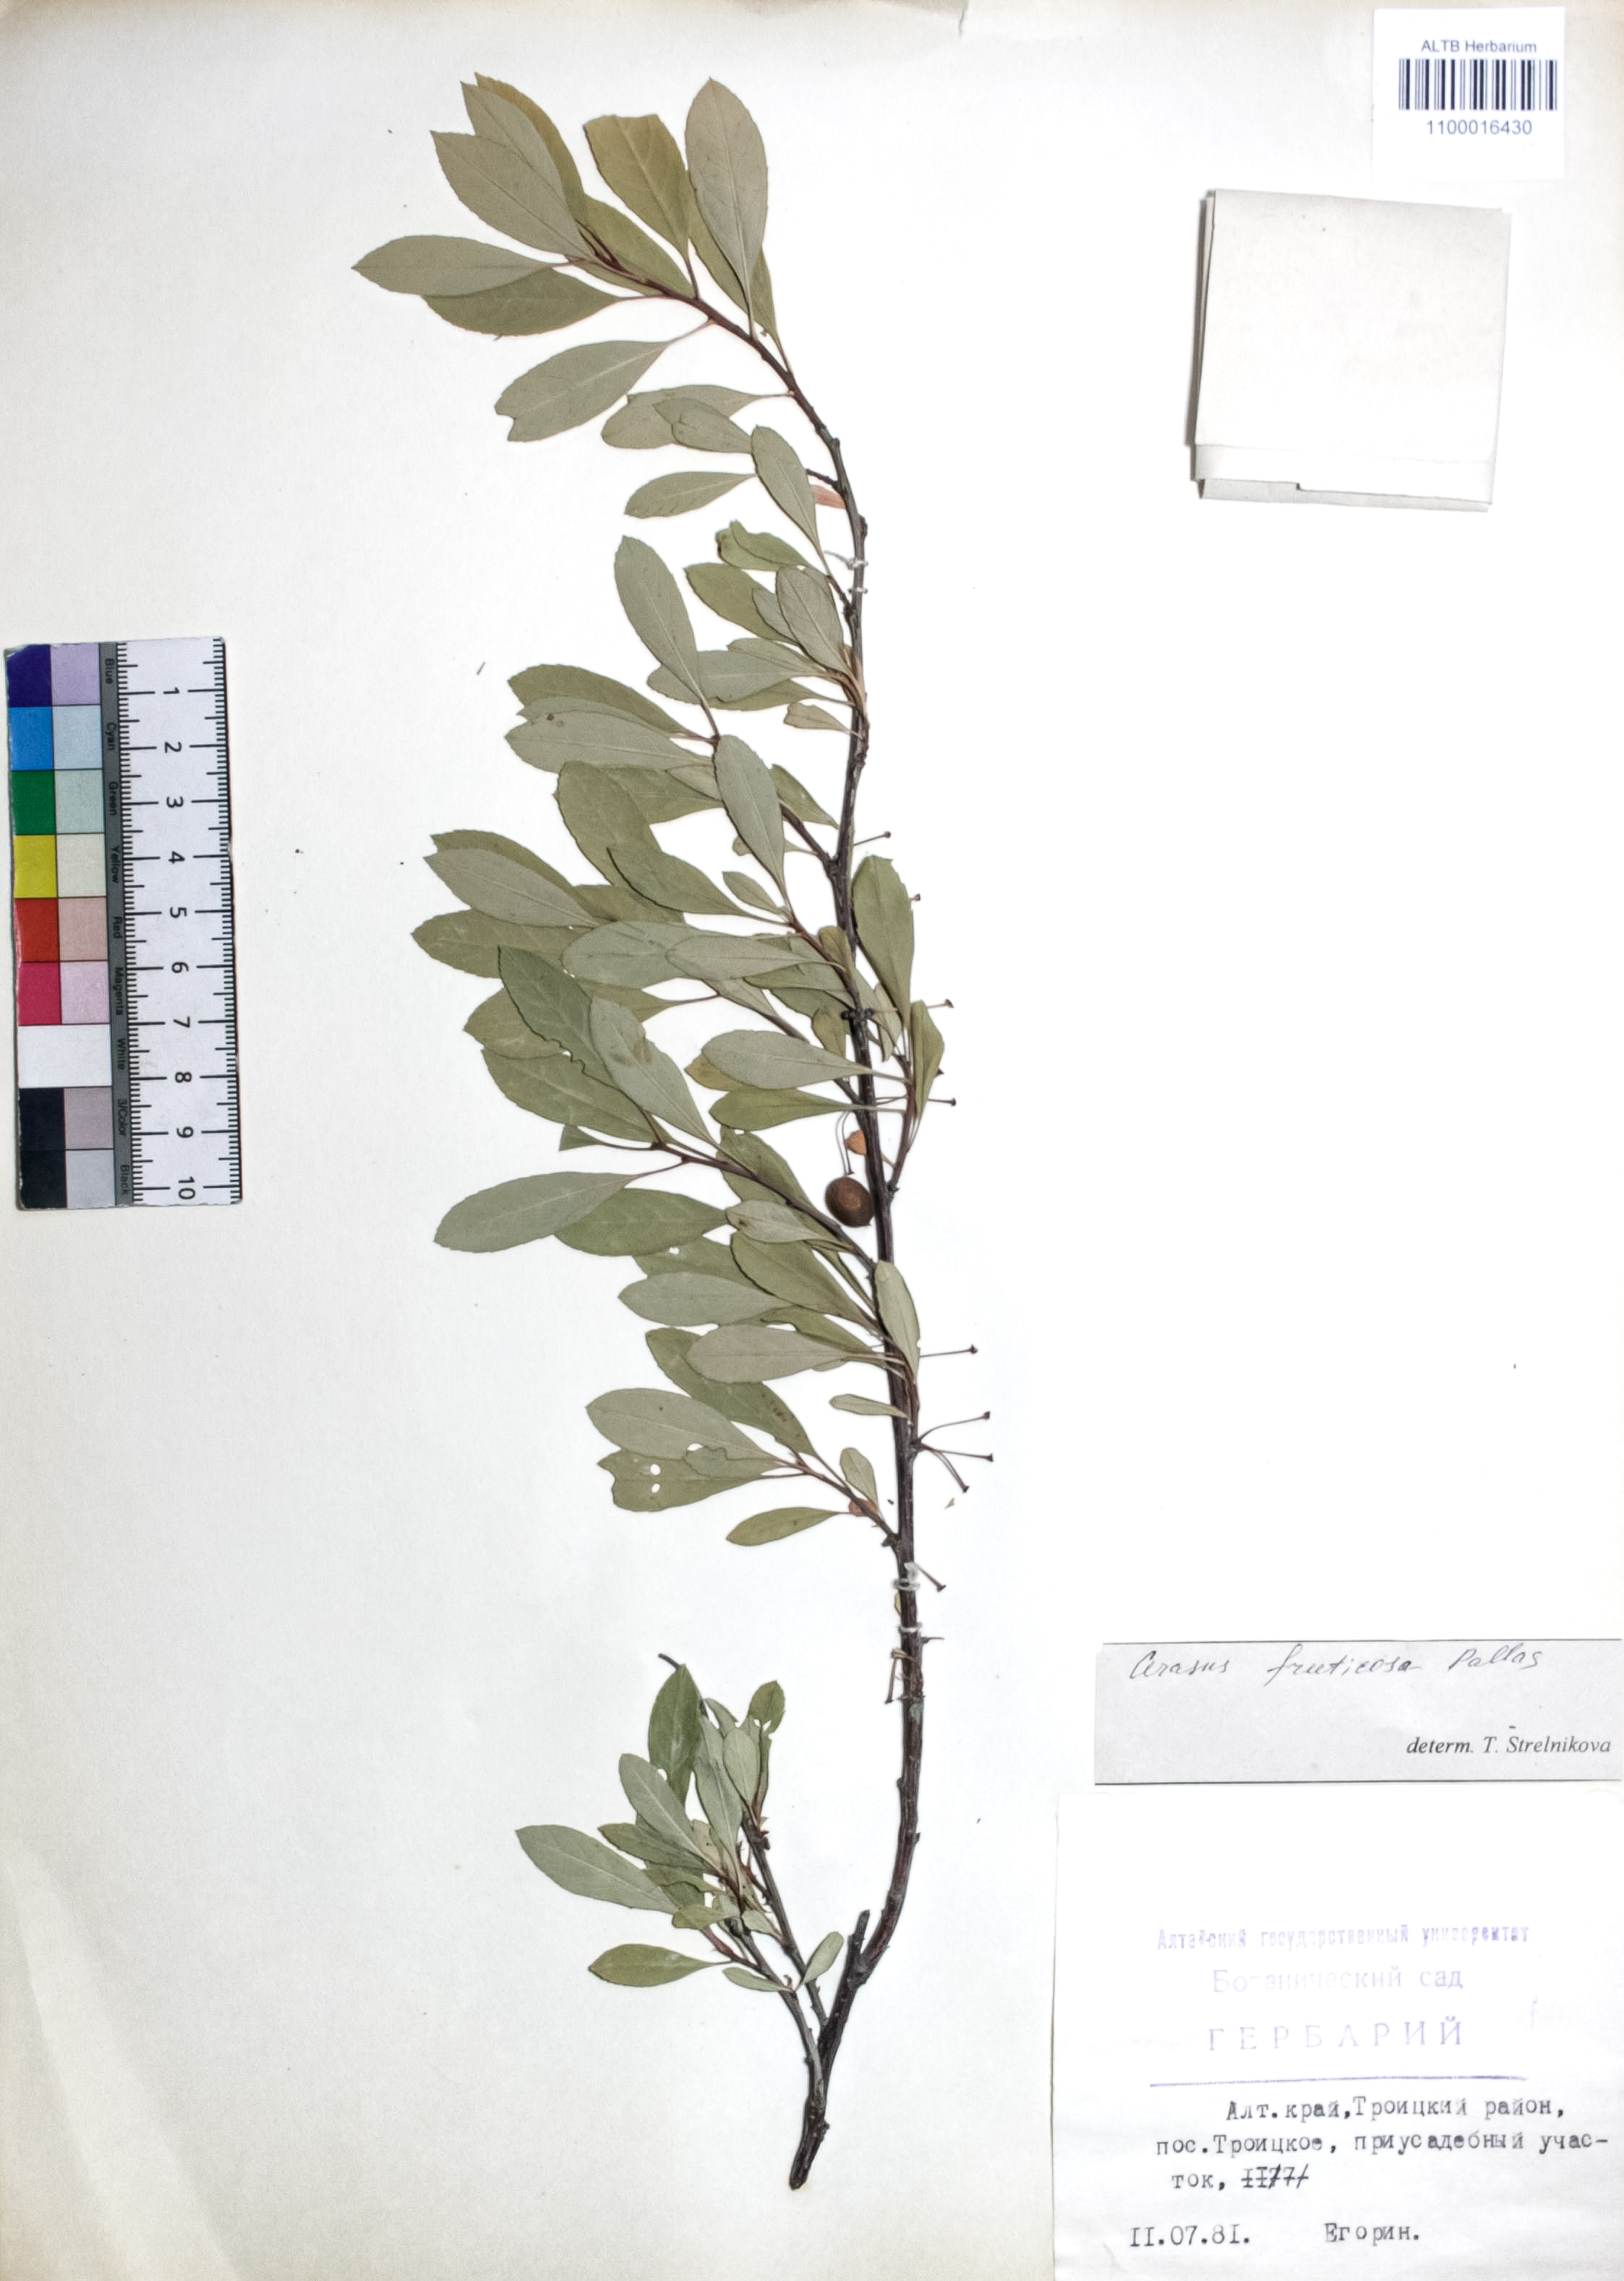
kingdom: Plantae
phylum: Tracheophyta
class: Magnoliopsida
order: Rosales
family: Rosaceae
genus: Prunus
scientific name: Prunus cerasus
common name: Morello cherry
